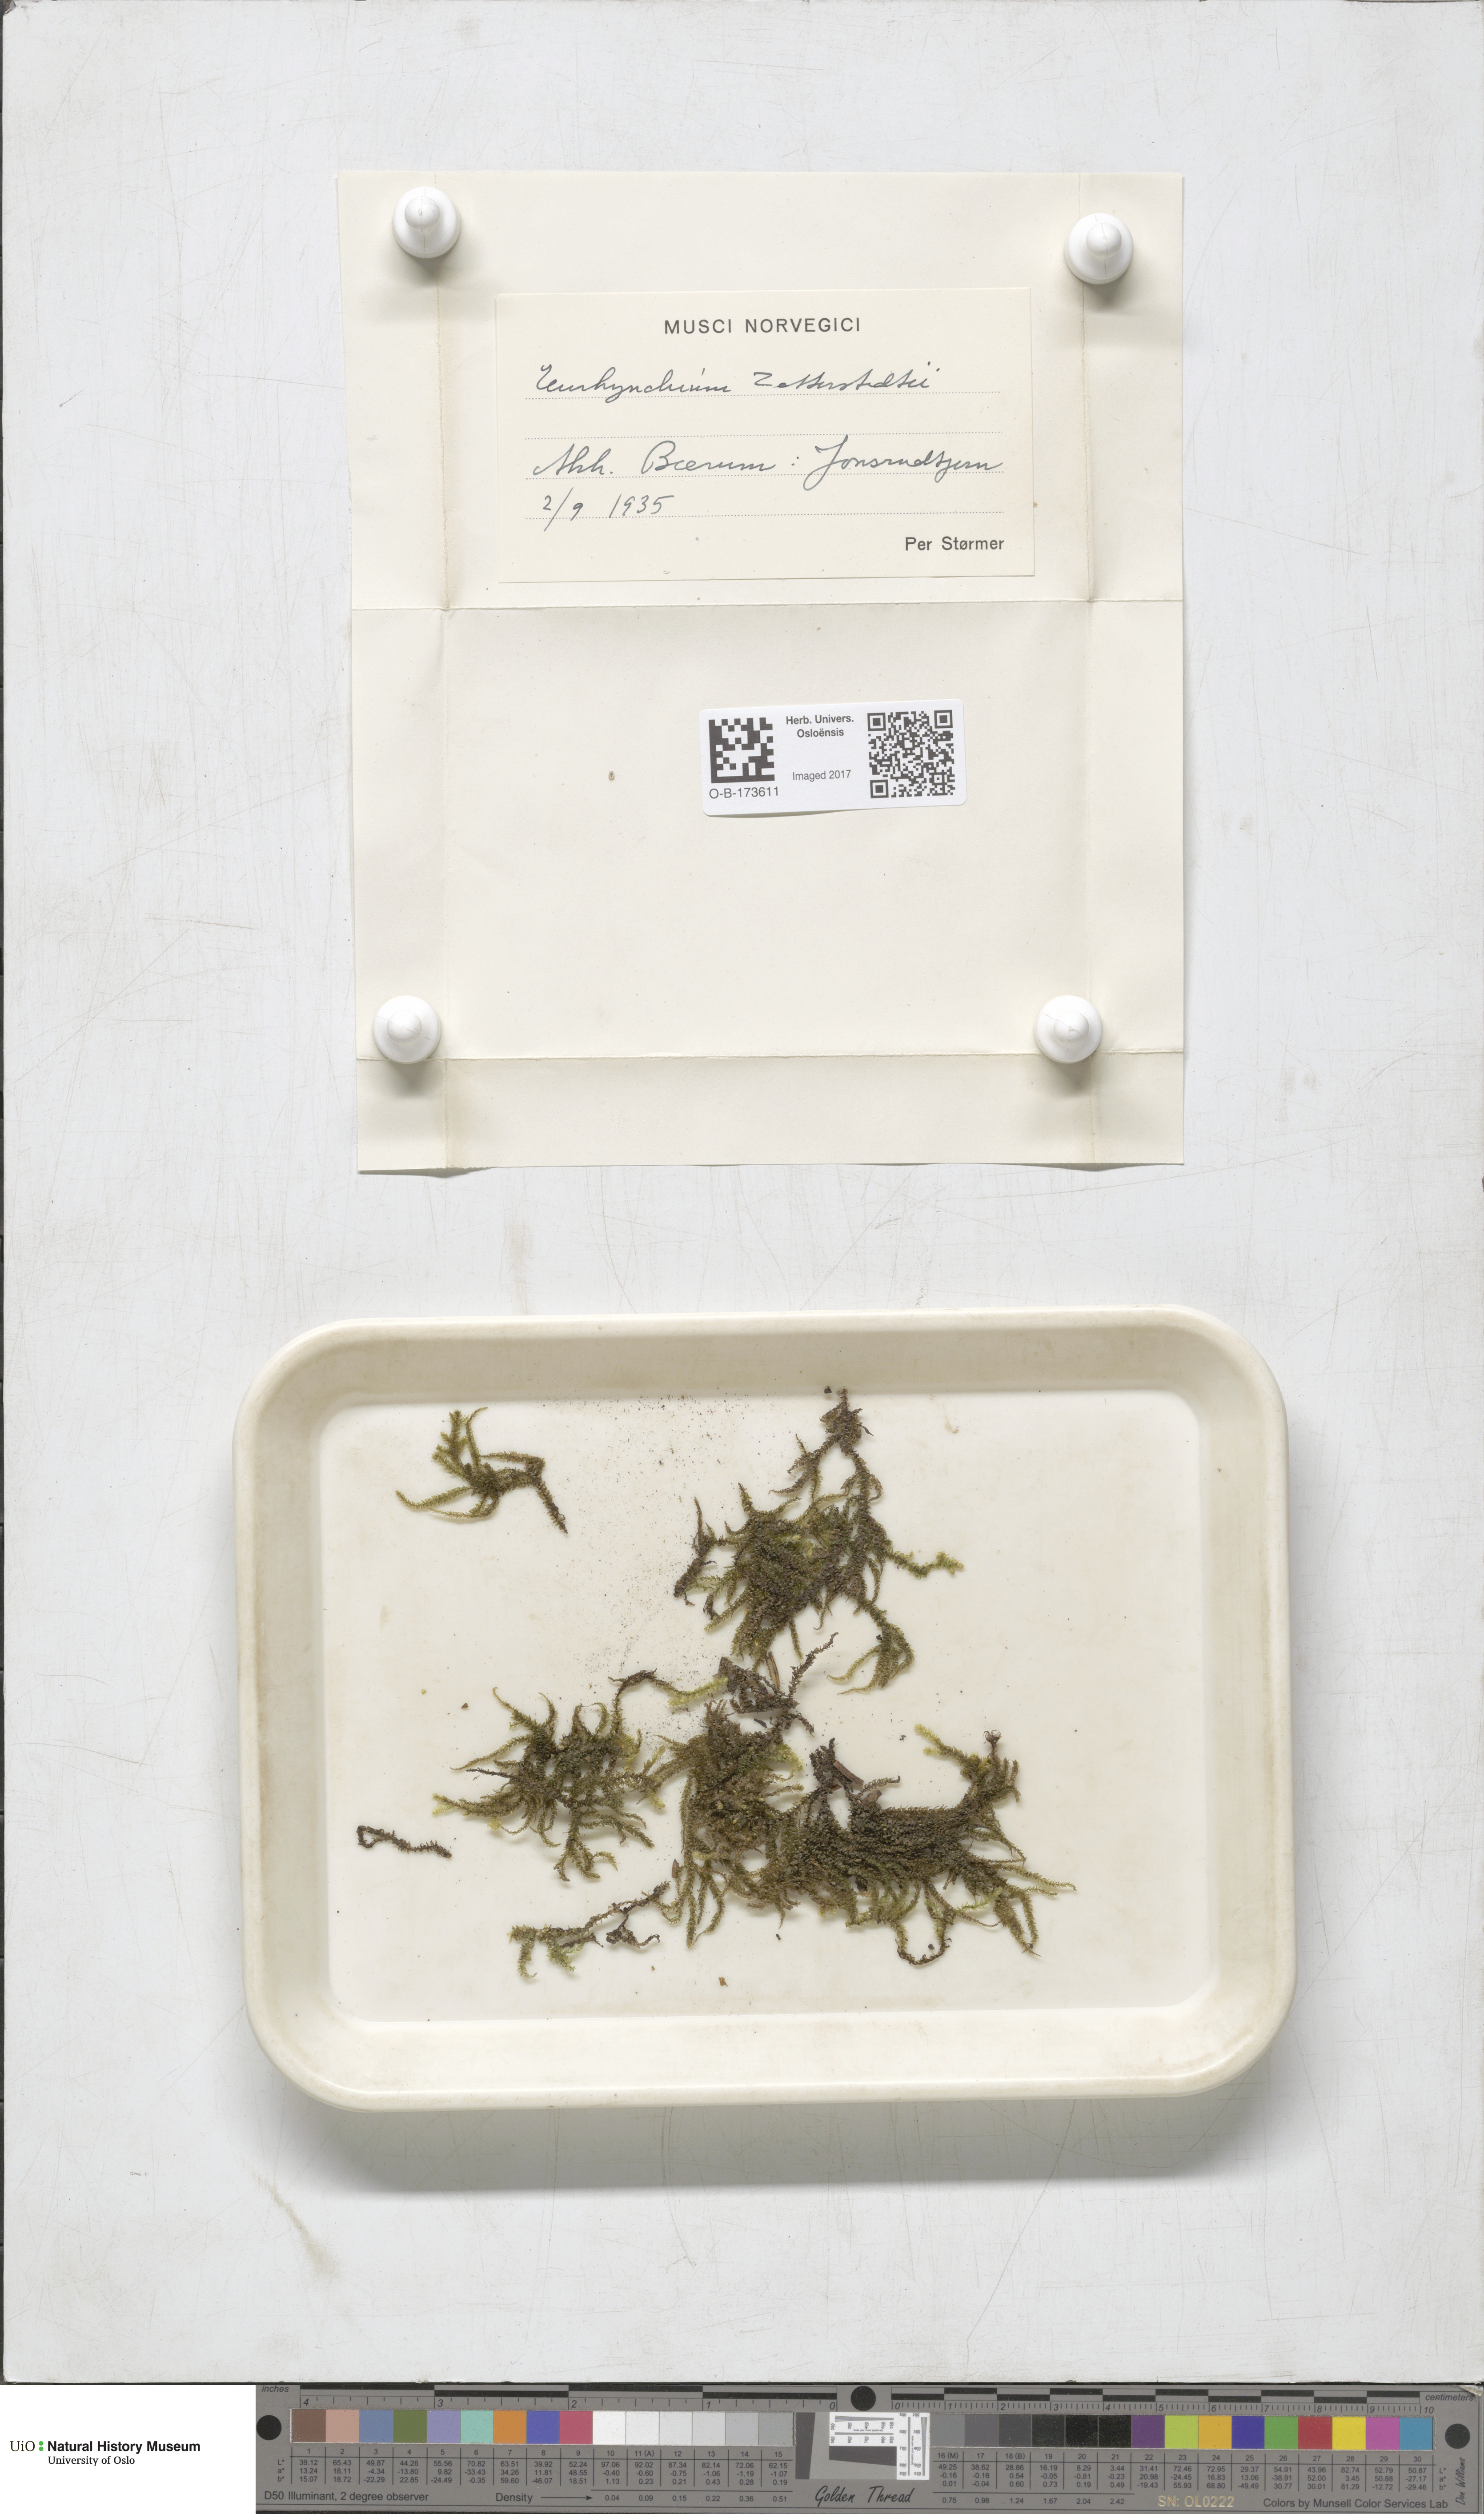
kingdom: Plantae
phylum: Bryophyta
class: Bryopsida
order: Hypnales
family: Brachytheciaceae
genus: Eurhynchium
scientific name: Eurhynchium angustirete
